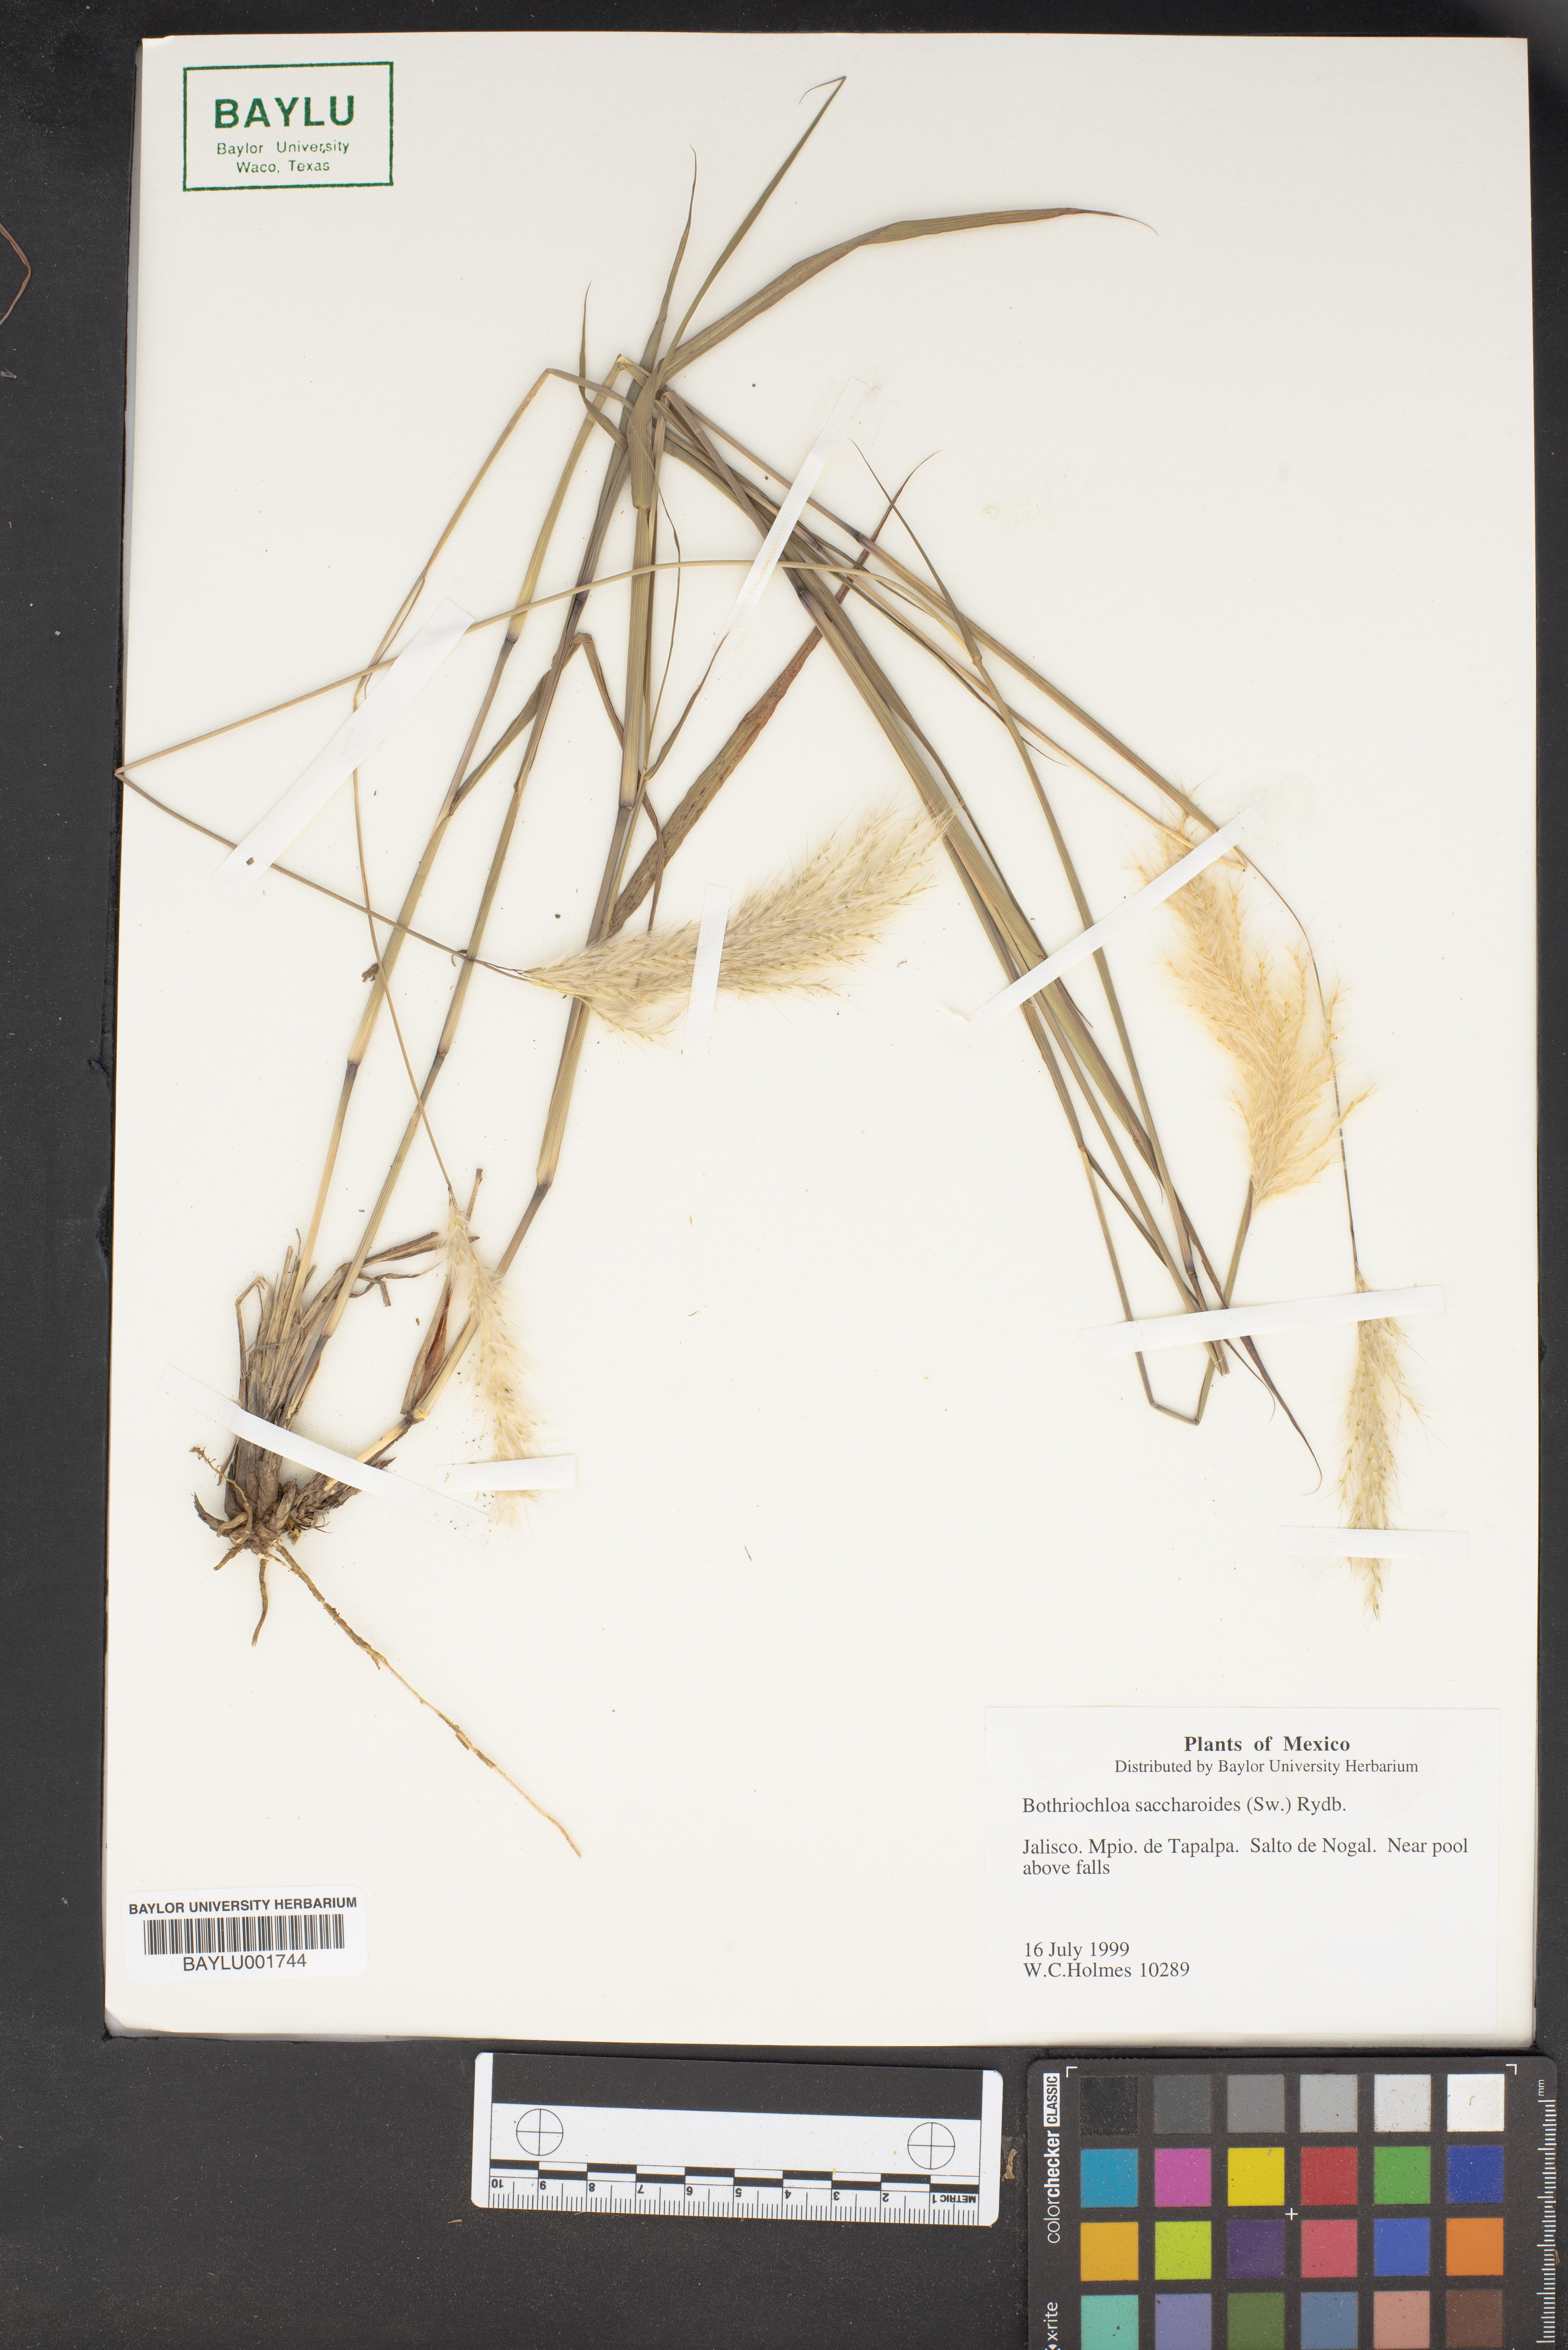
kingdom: Plantae
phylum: Tracheophyta
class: Liliopsida
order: Poales
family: Poaceae
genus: Bothriochloa
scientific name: Bothriochloa saccharoides
